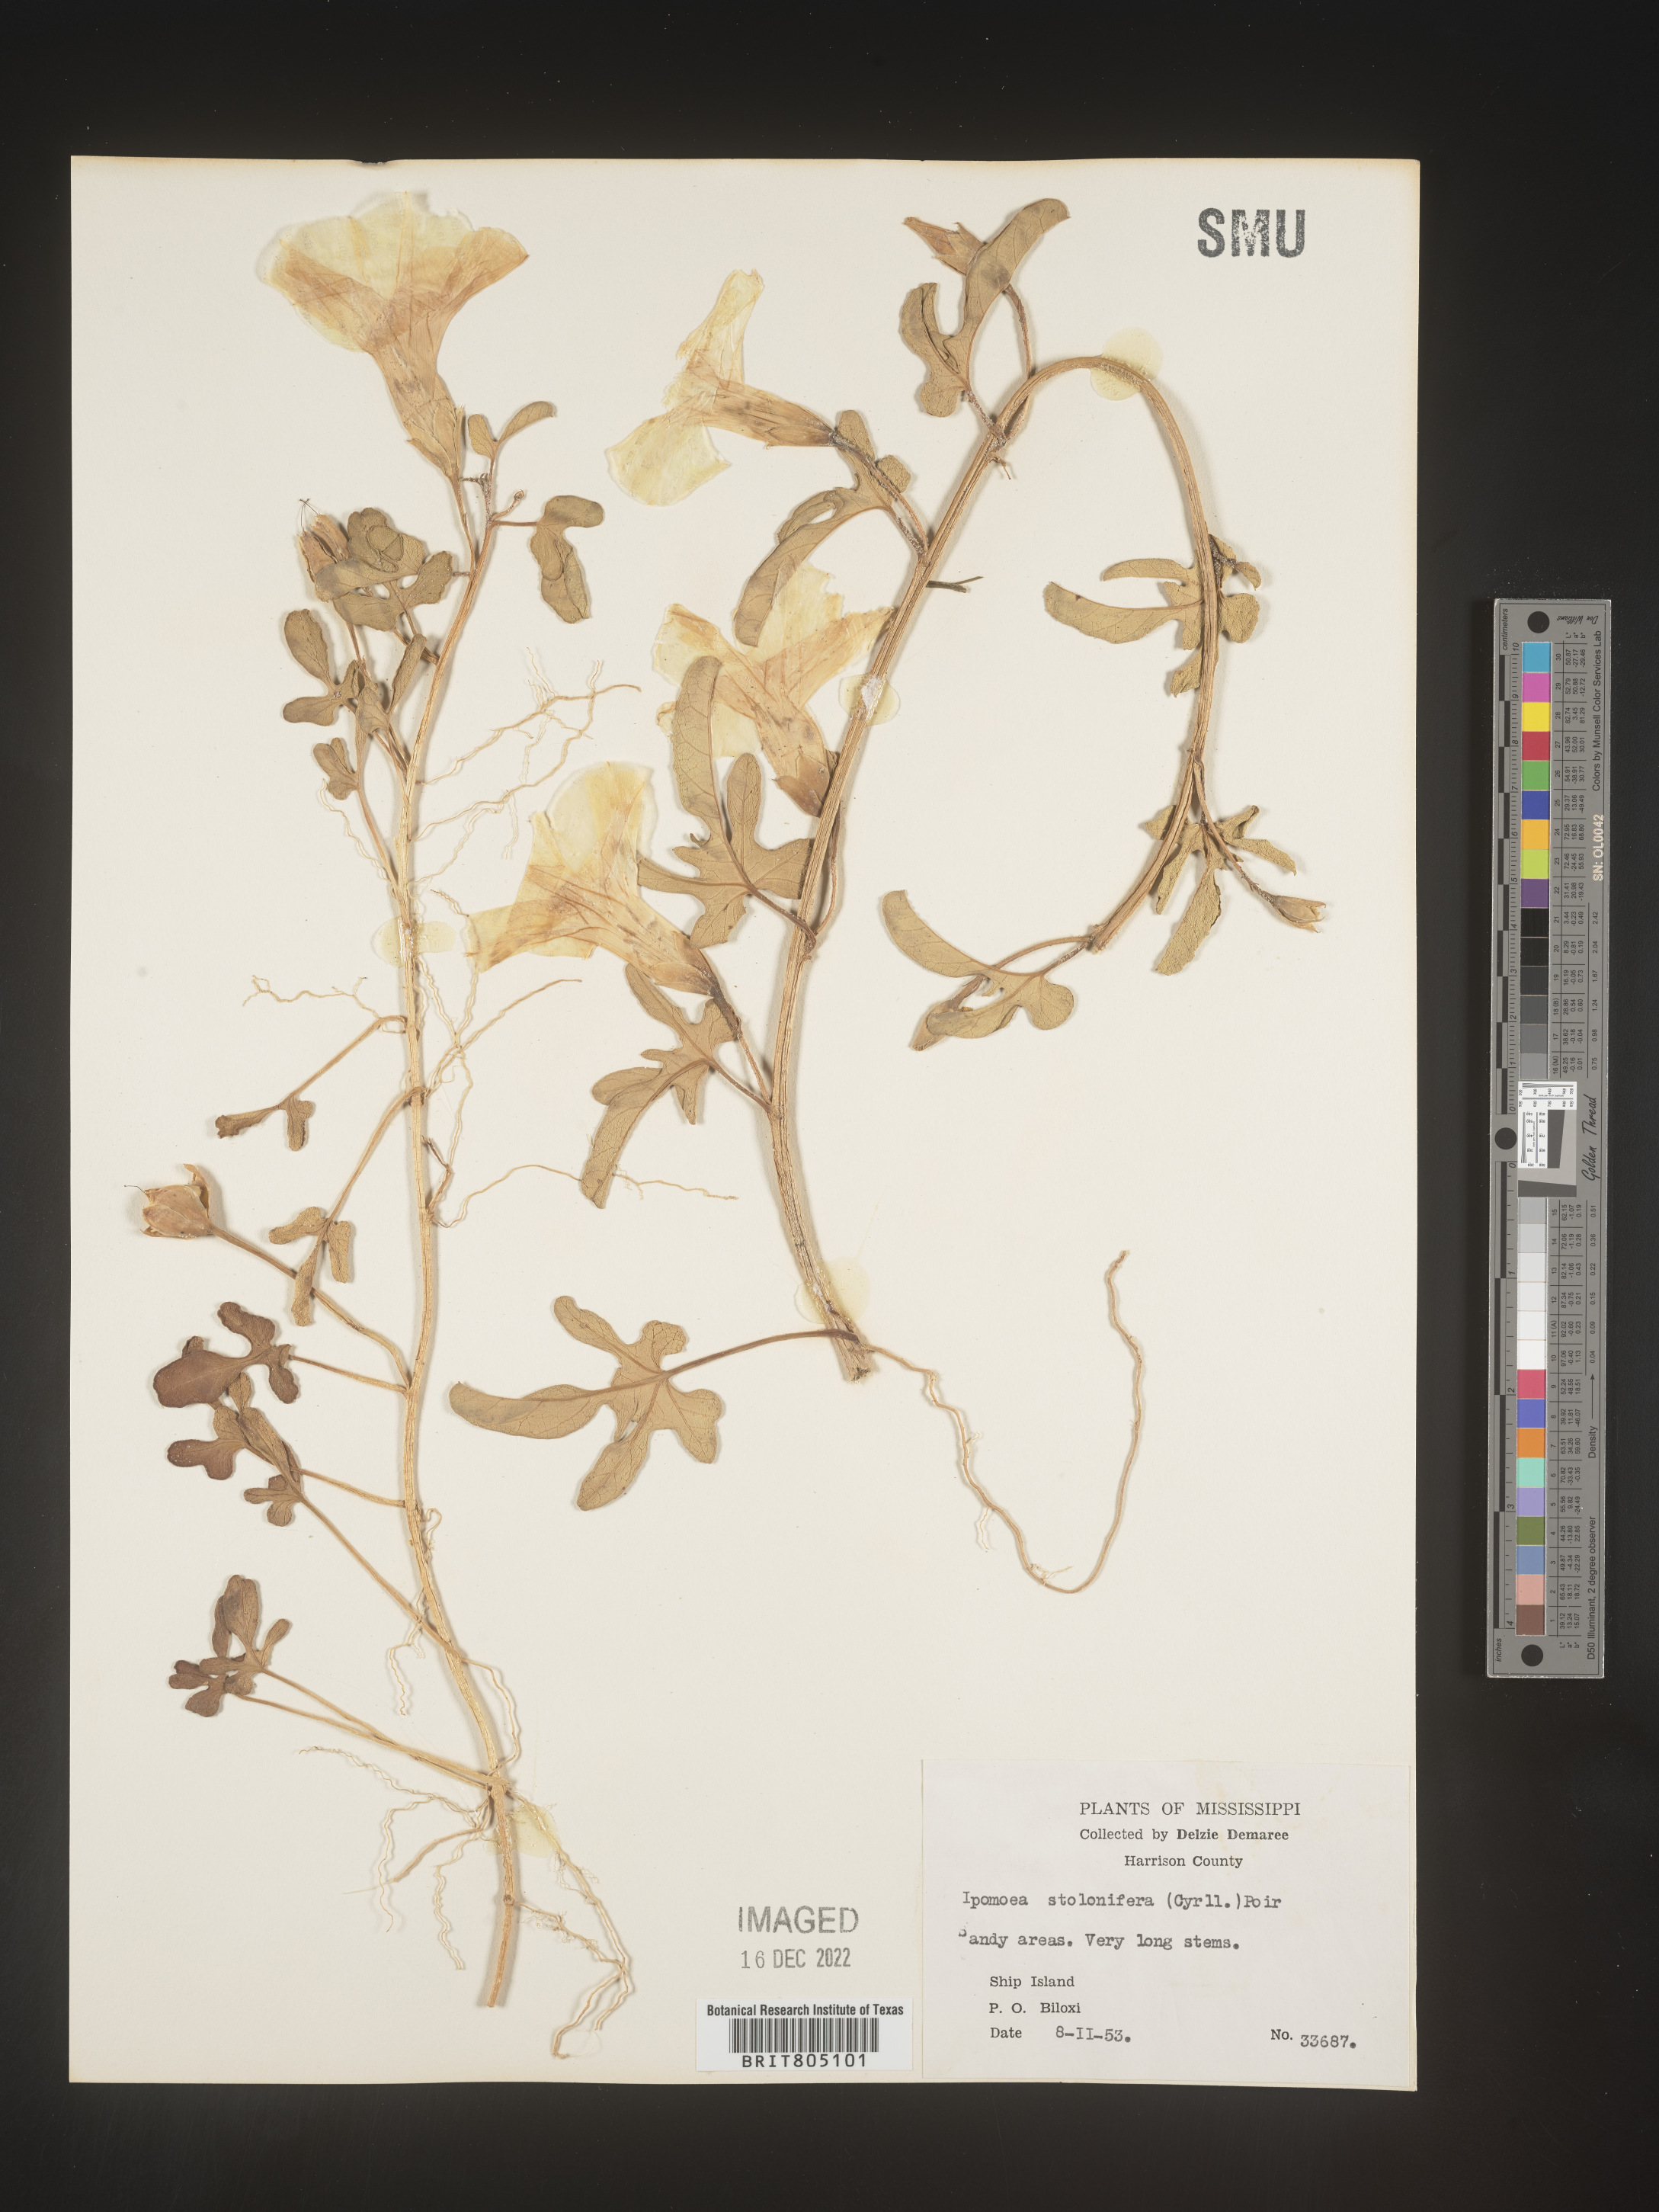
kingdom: Plantae
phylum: Tracheophyta
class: Magnoliopsida
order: Solanales
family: Convolvulaceae
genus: Ipomoea
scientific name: Ipomoea imperati
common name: Fiddle-leaf morning-glory
